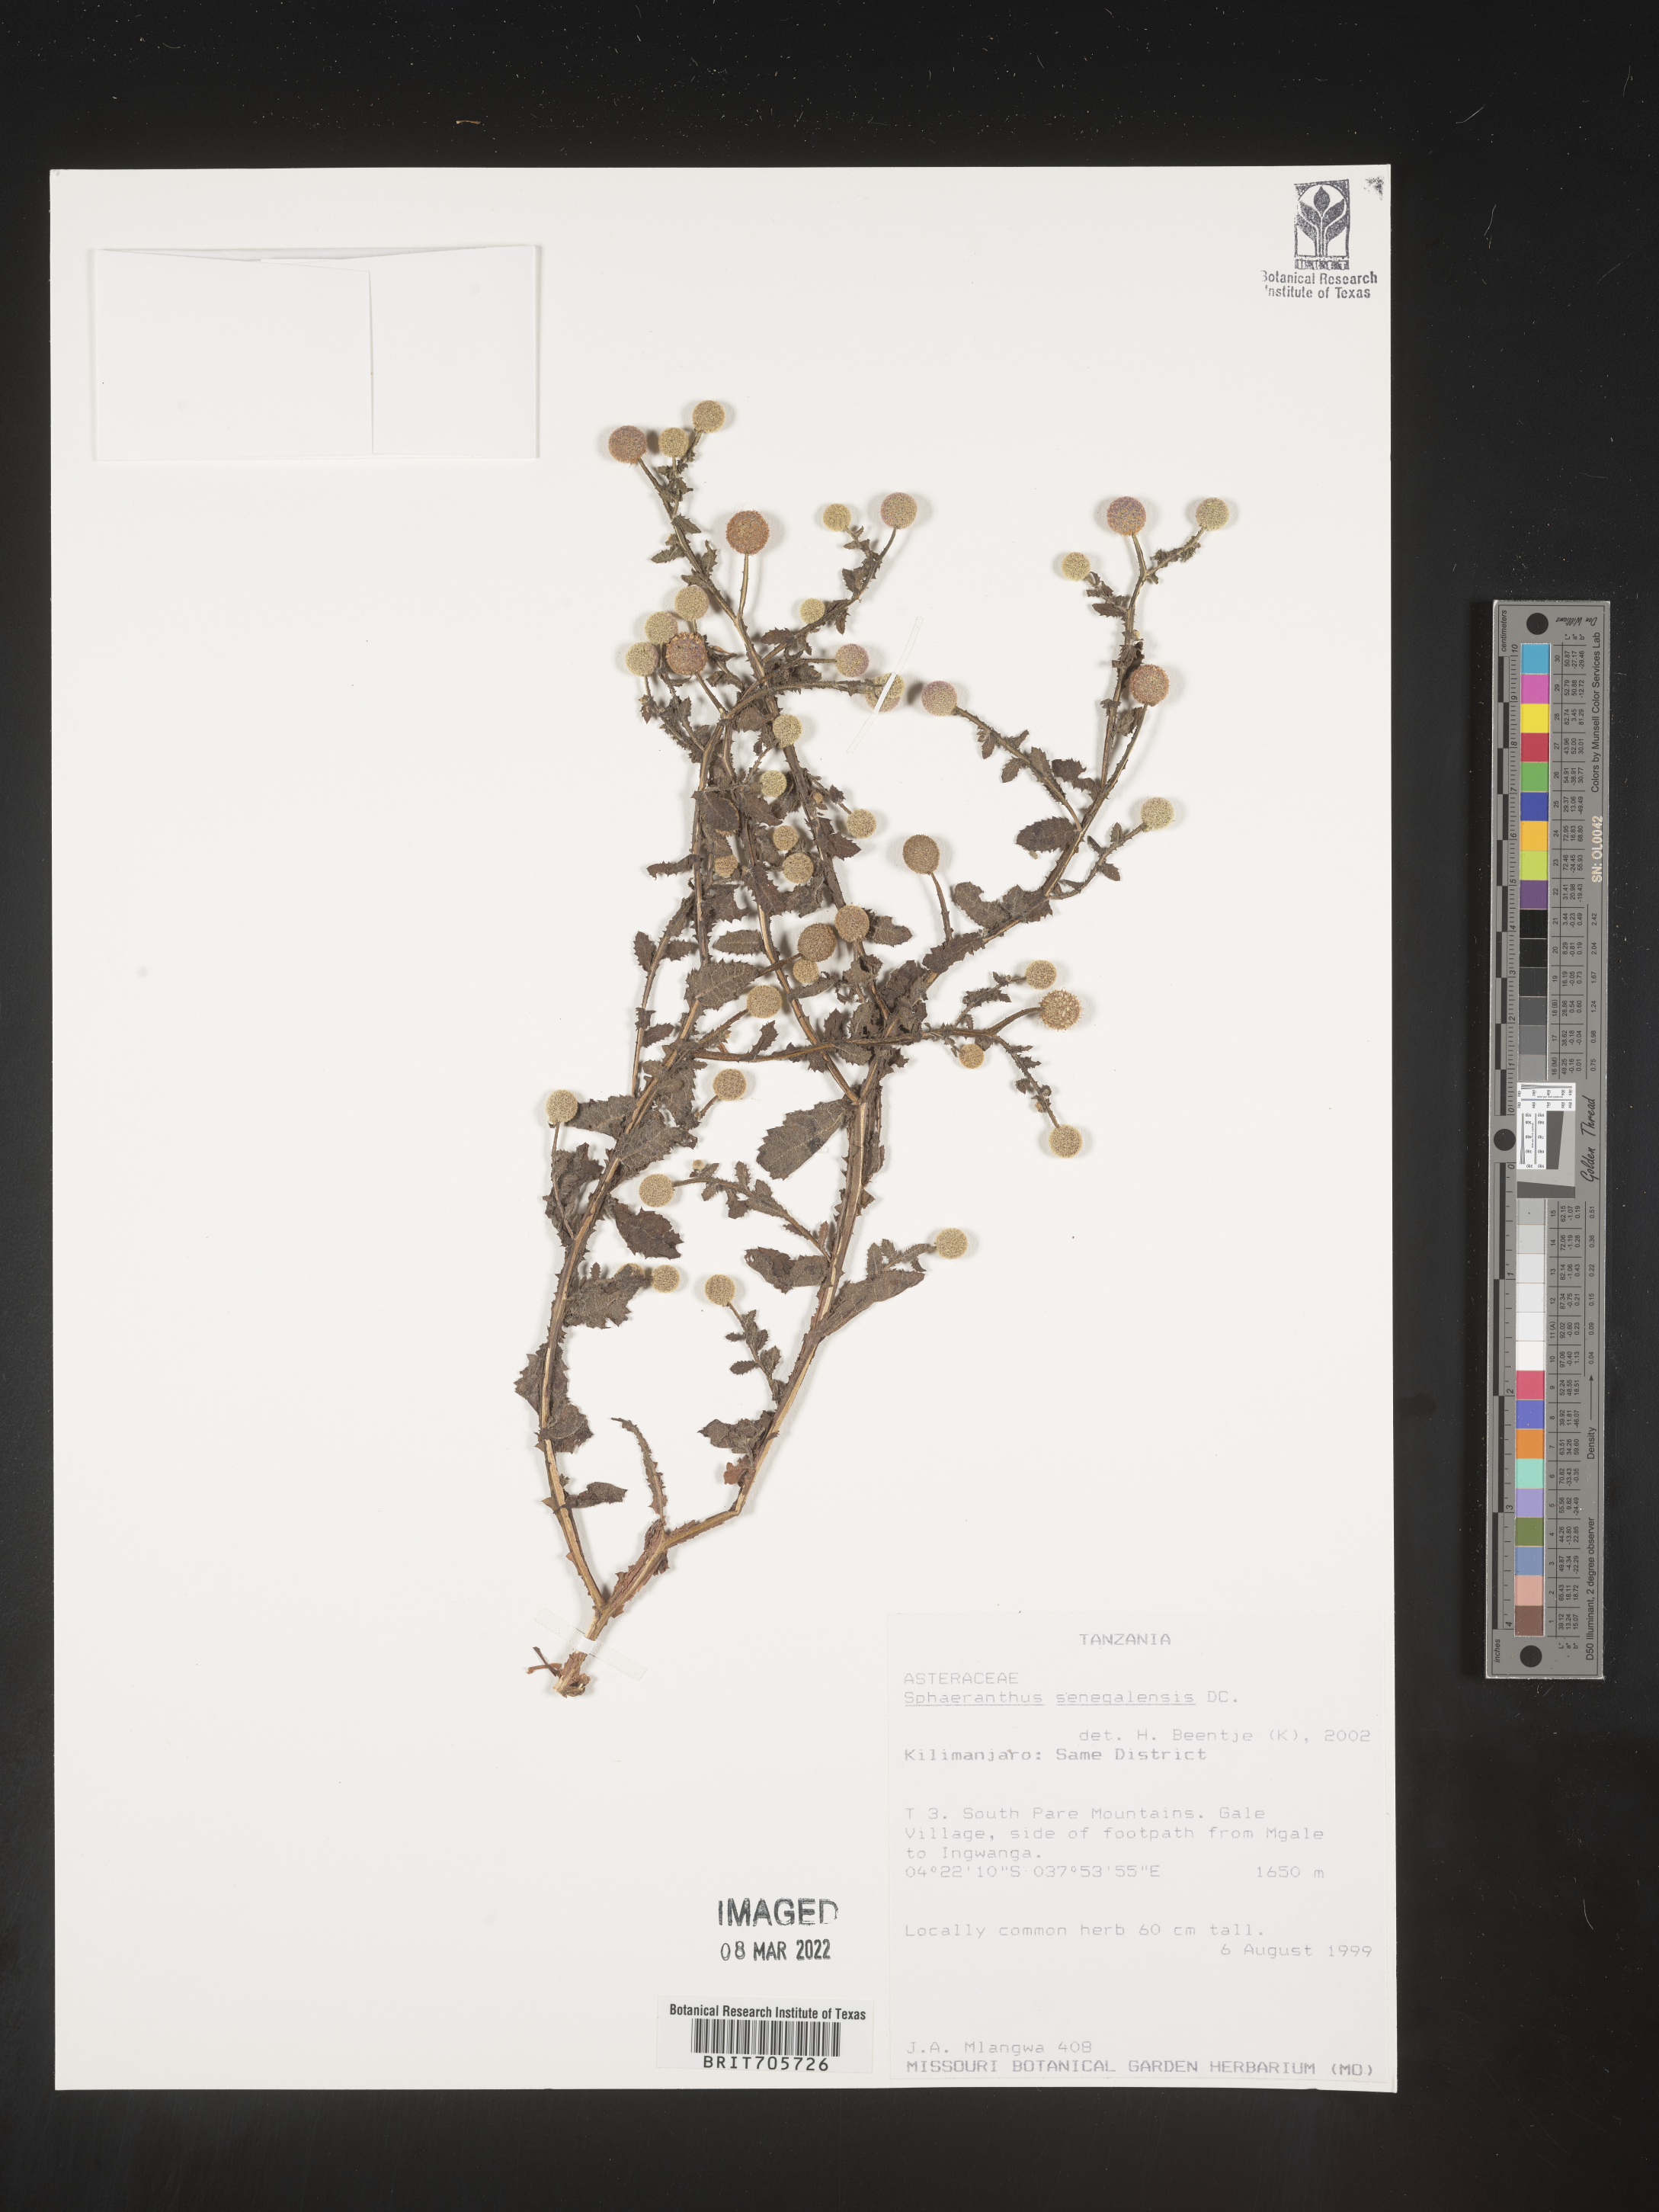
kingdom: Plantae
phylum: Tracheophyta
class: Magnoliopsida
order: Asterales
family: Asteraceae
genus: Sphaeranthus
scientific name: Sphaeranthus
